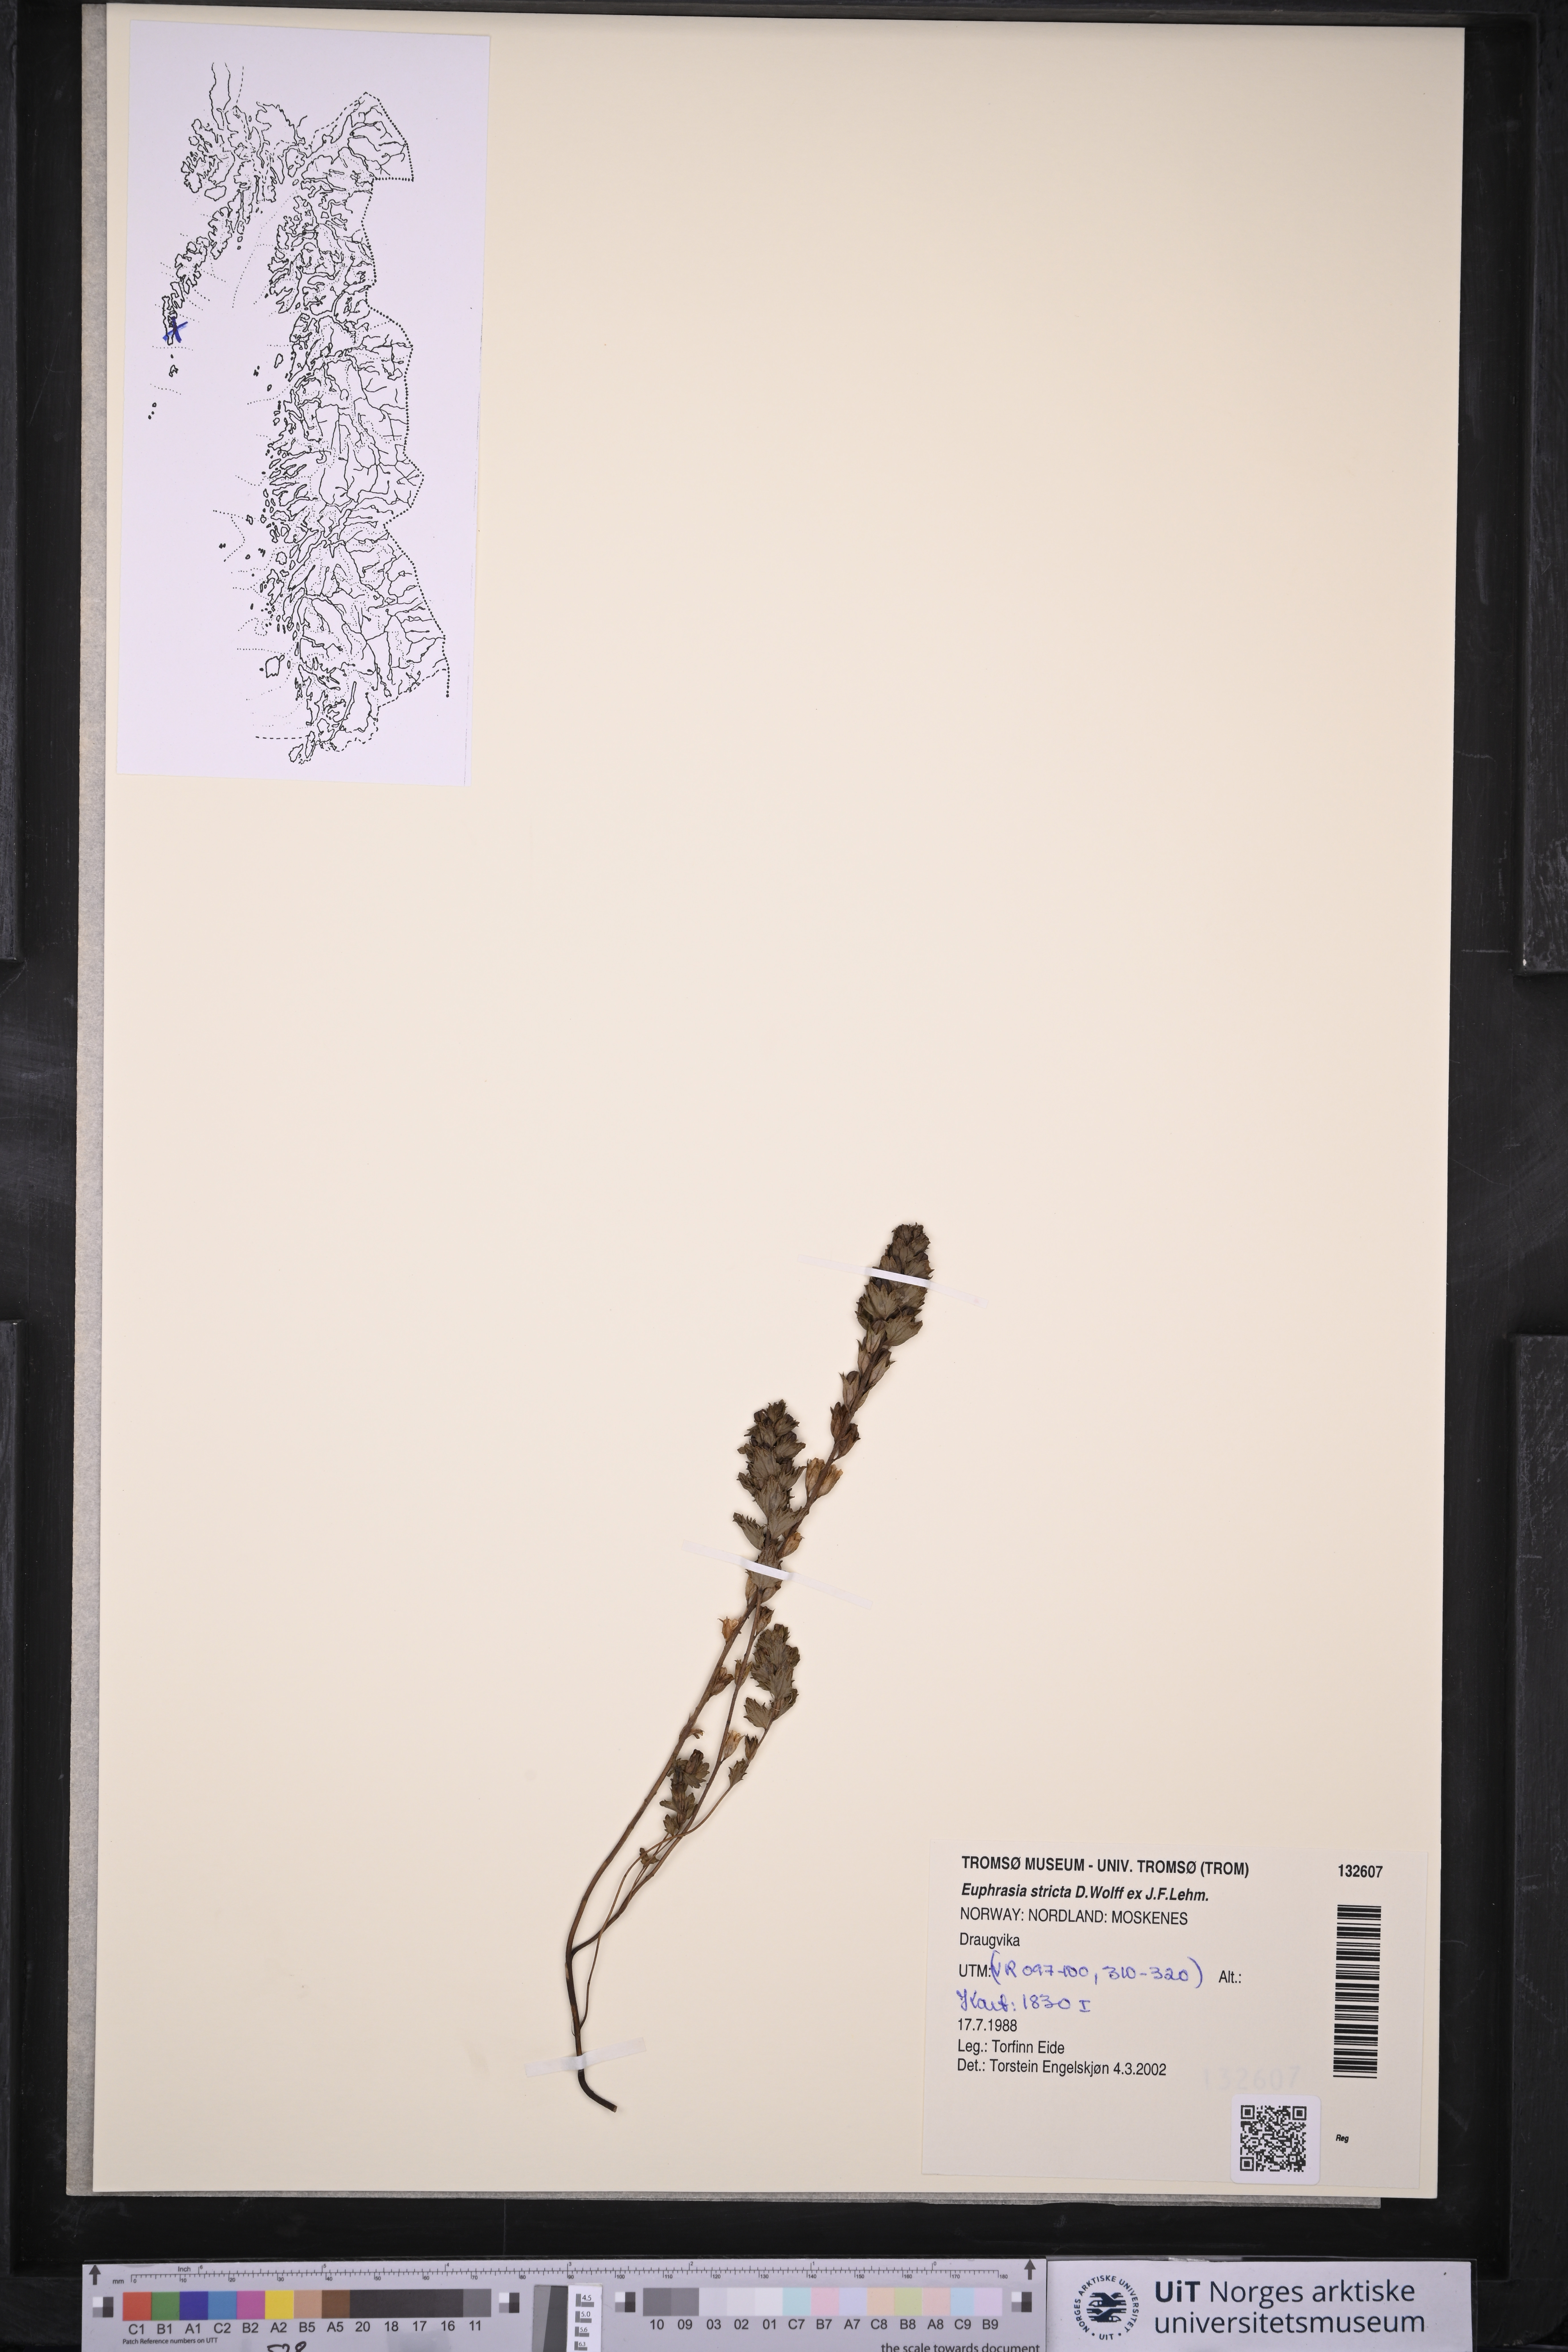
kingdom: Plantae
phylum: Tracheophyta
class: Magnoliopsida
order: Lamiales
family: Orobanchaceae
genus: Euphrasia
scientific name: Euphrasia stricta
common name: Drug eyebright
